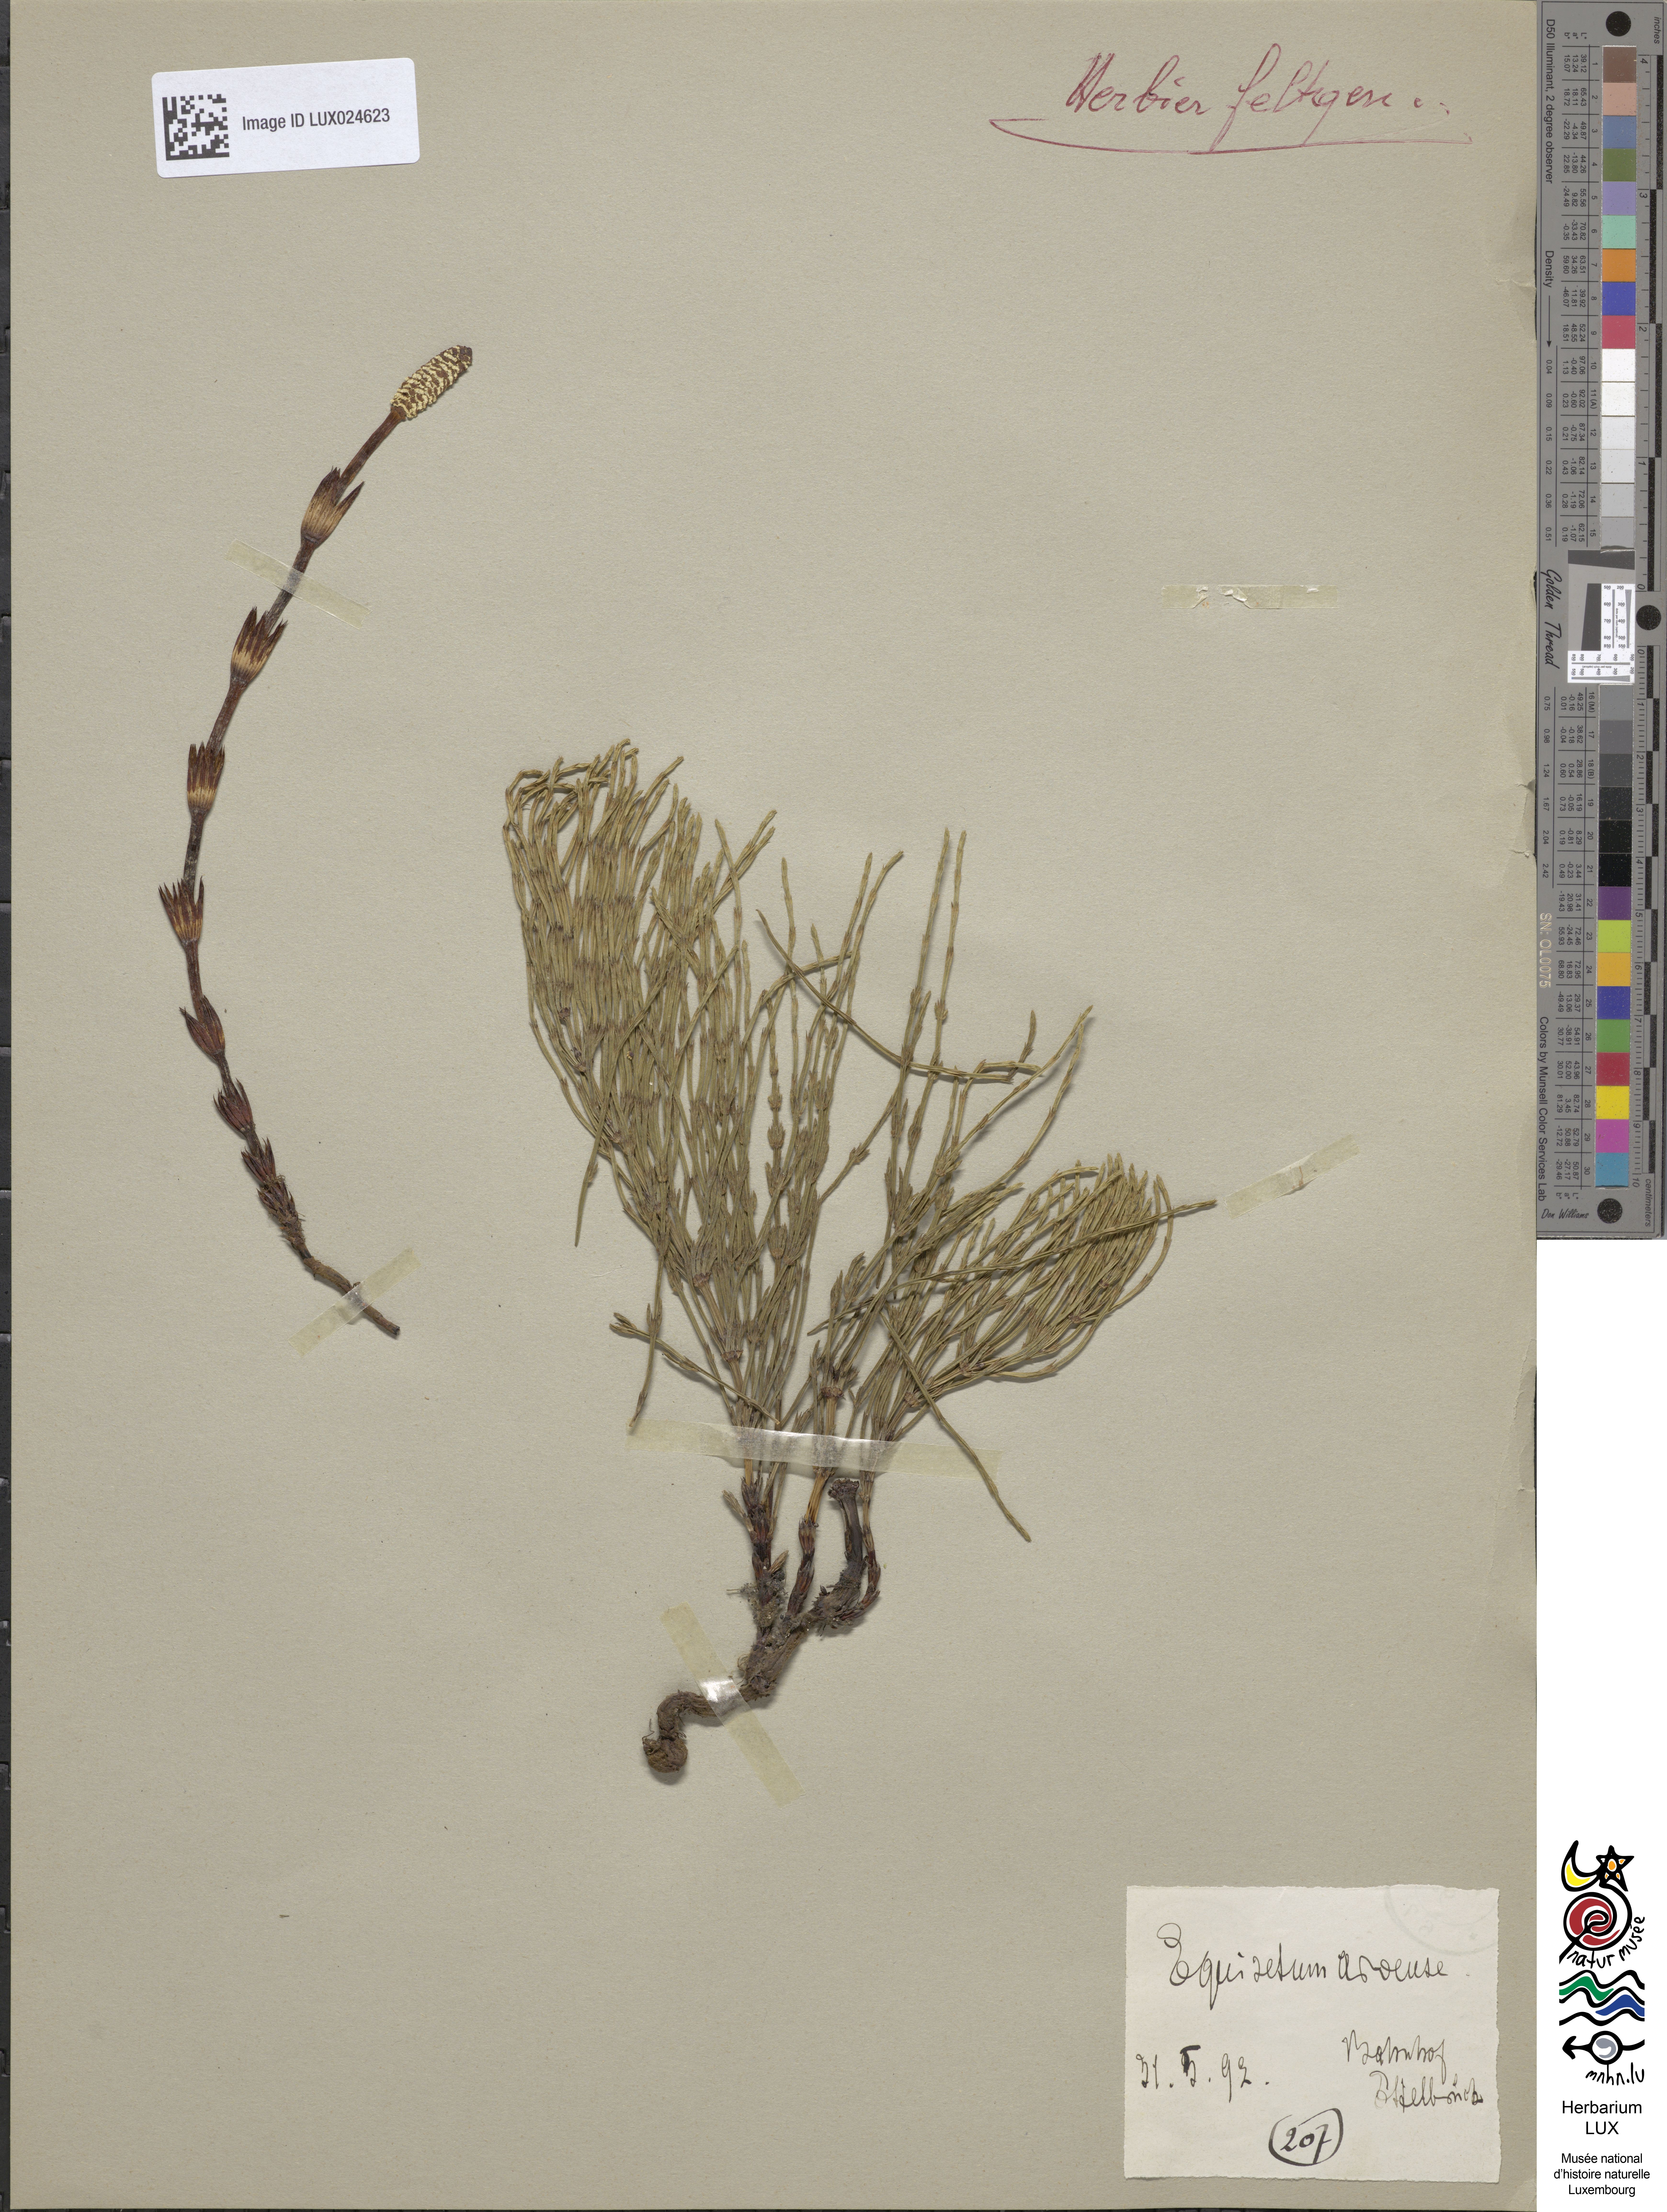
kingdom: Plantae
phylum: Tracheophyta
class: Polypodiopsida
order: Equisetales
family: Equisetaceae
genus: Equisetum
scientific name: Equisetum arvense
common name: Field horsetail
